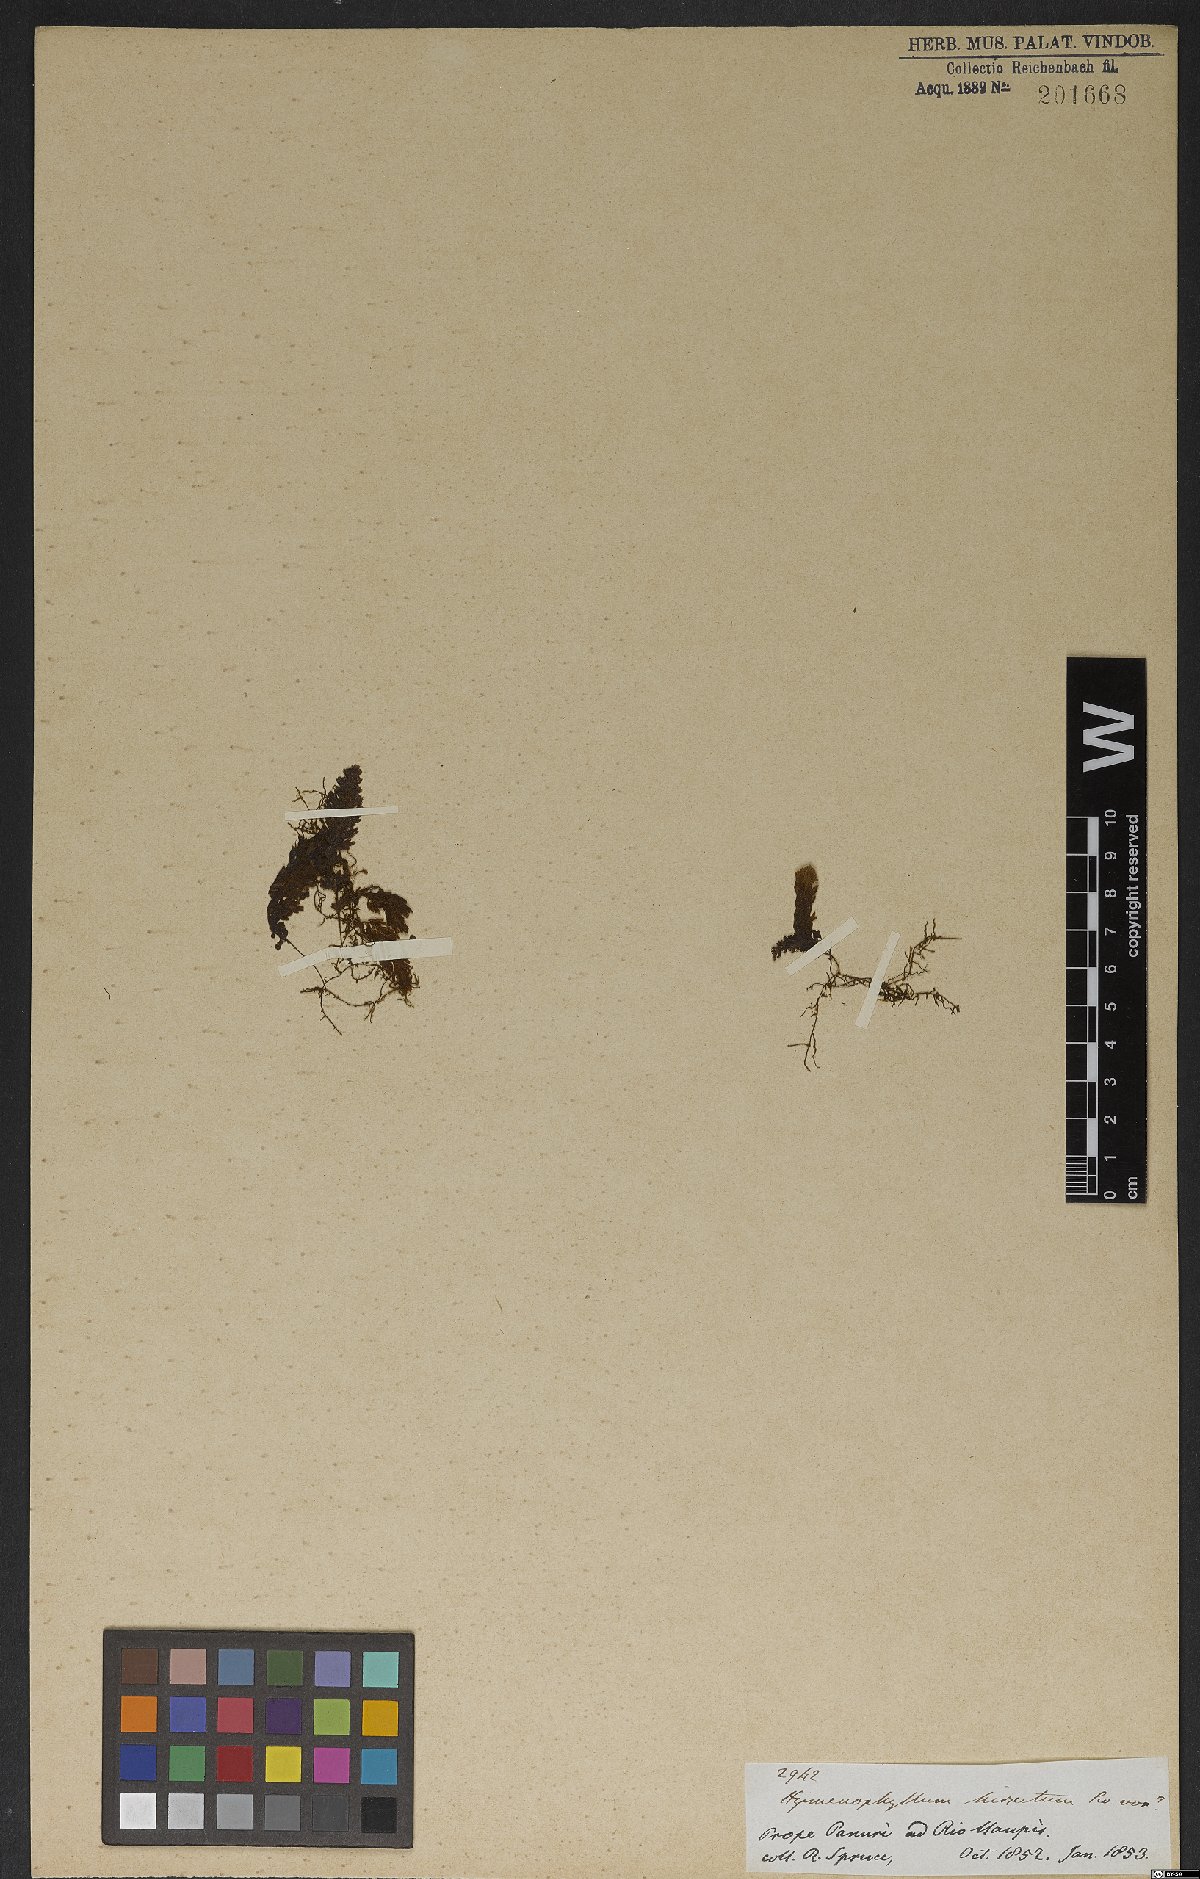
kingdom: Plantae
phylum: Tracheophyta
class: Polypodiopsida
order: Hymenophyllales
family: Hymenophyllaceae
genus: Hymenophyllum
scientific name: Hymenophyllum hirsutum
